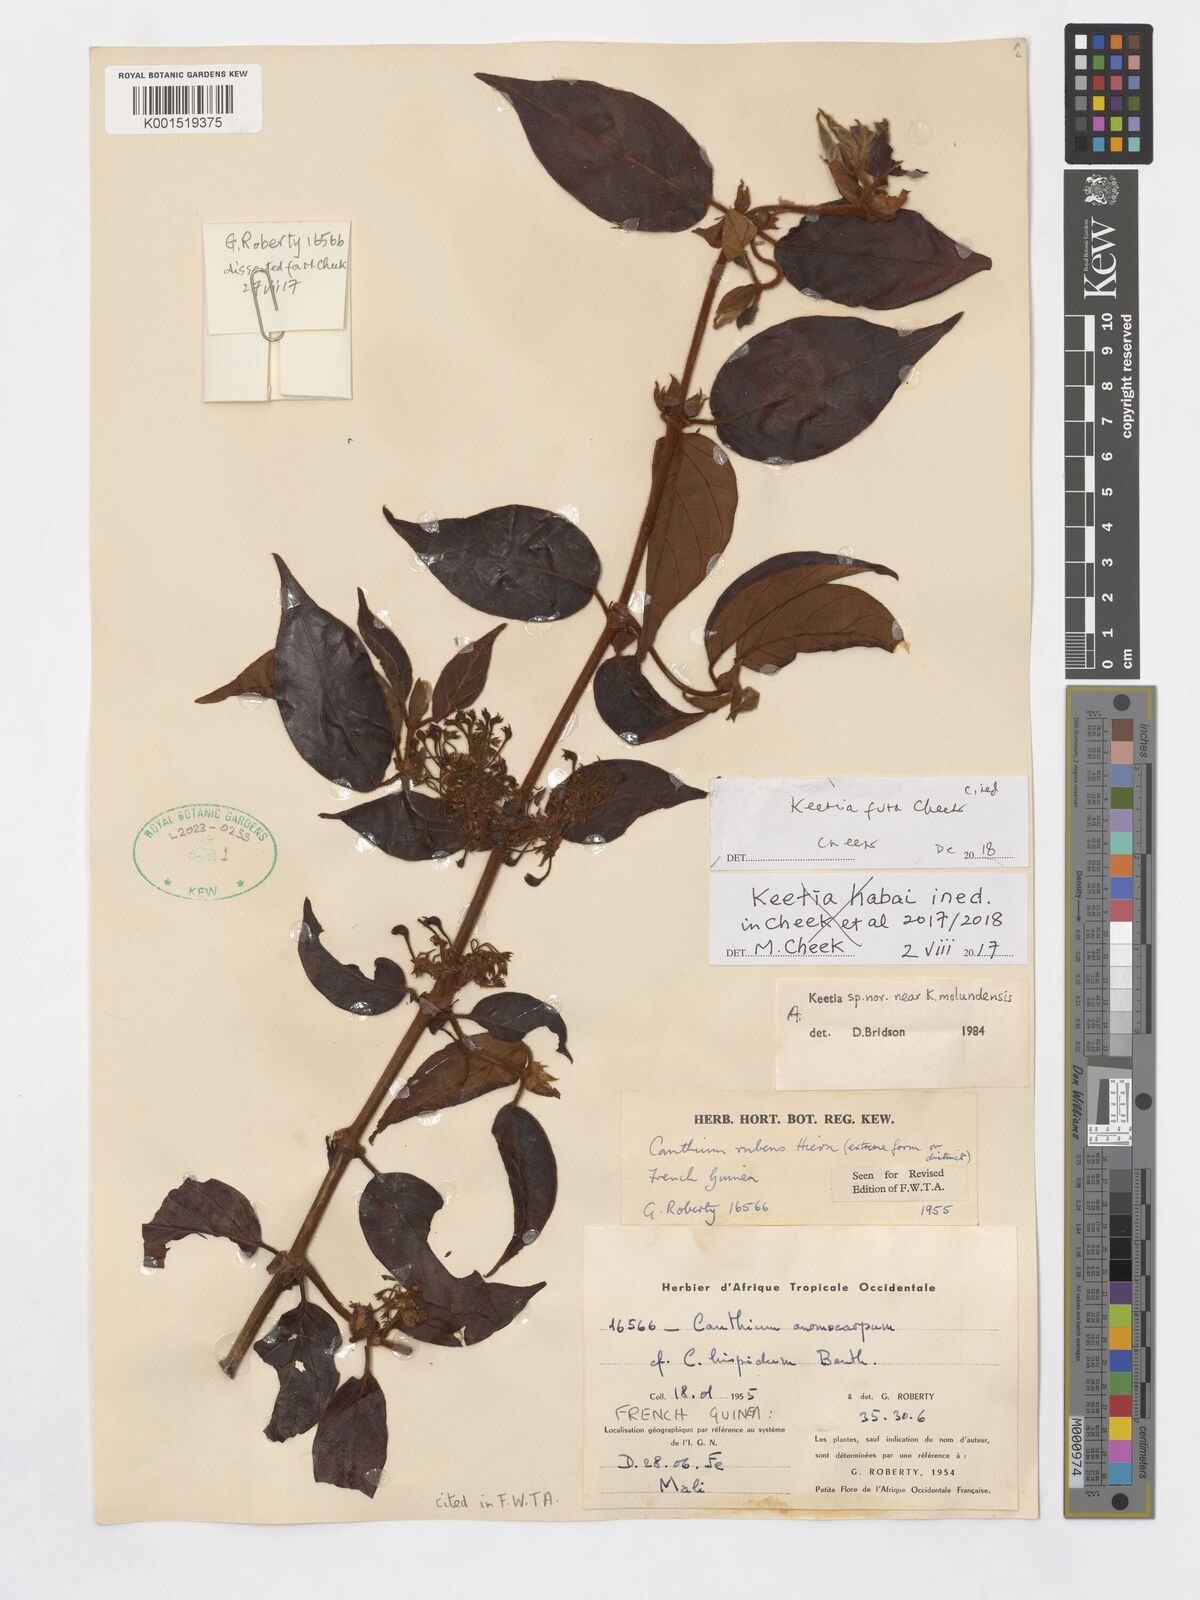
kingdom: Plantae
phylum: Tracheophyta
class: Magnoliopsida
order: Gentianales
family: Rubiaceae
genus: Keetia
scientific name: Keetia futa
